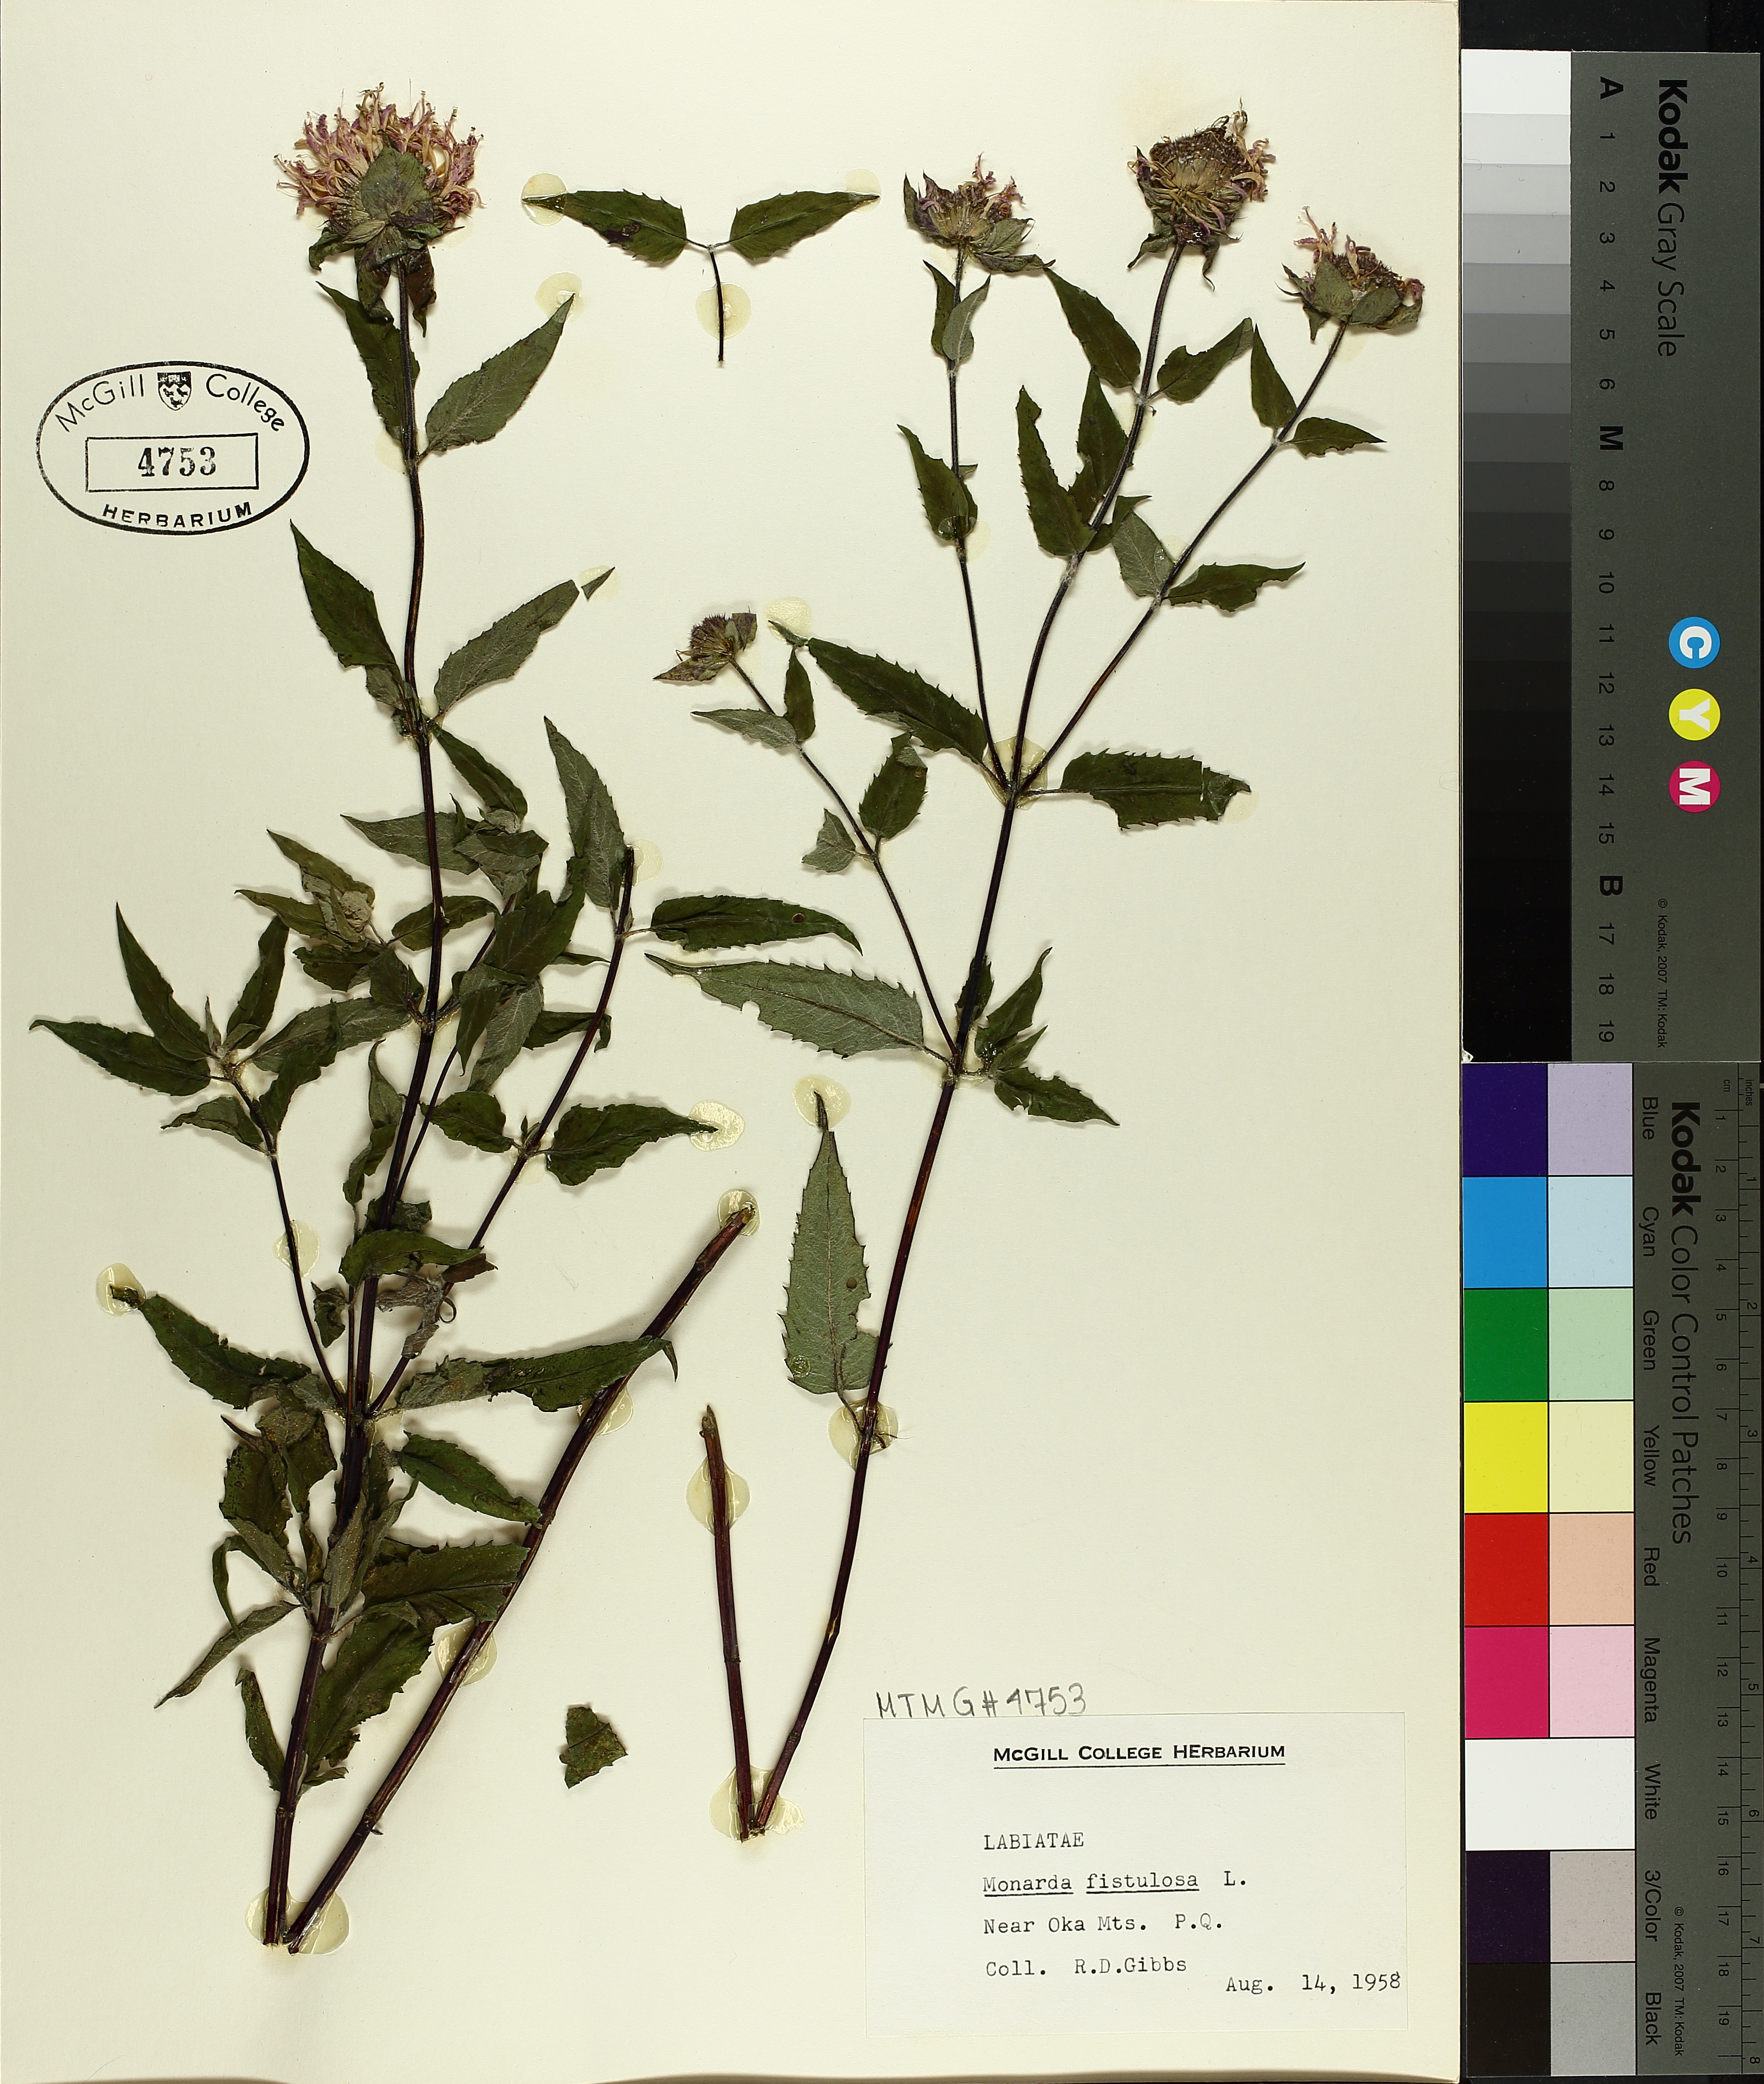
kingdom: Plantae
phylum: Tracheophyta
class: Magnoliopsida
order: Lamiales
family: Lamiaceae
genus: Monarda
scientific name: Monarda fistulosa
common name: Purple beebalm
